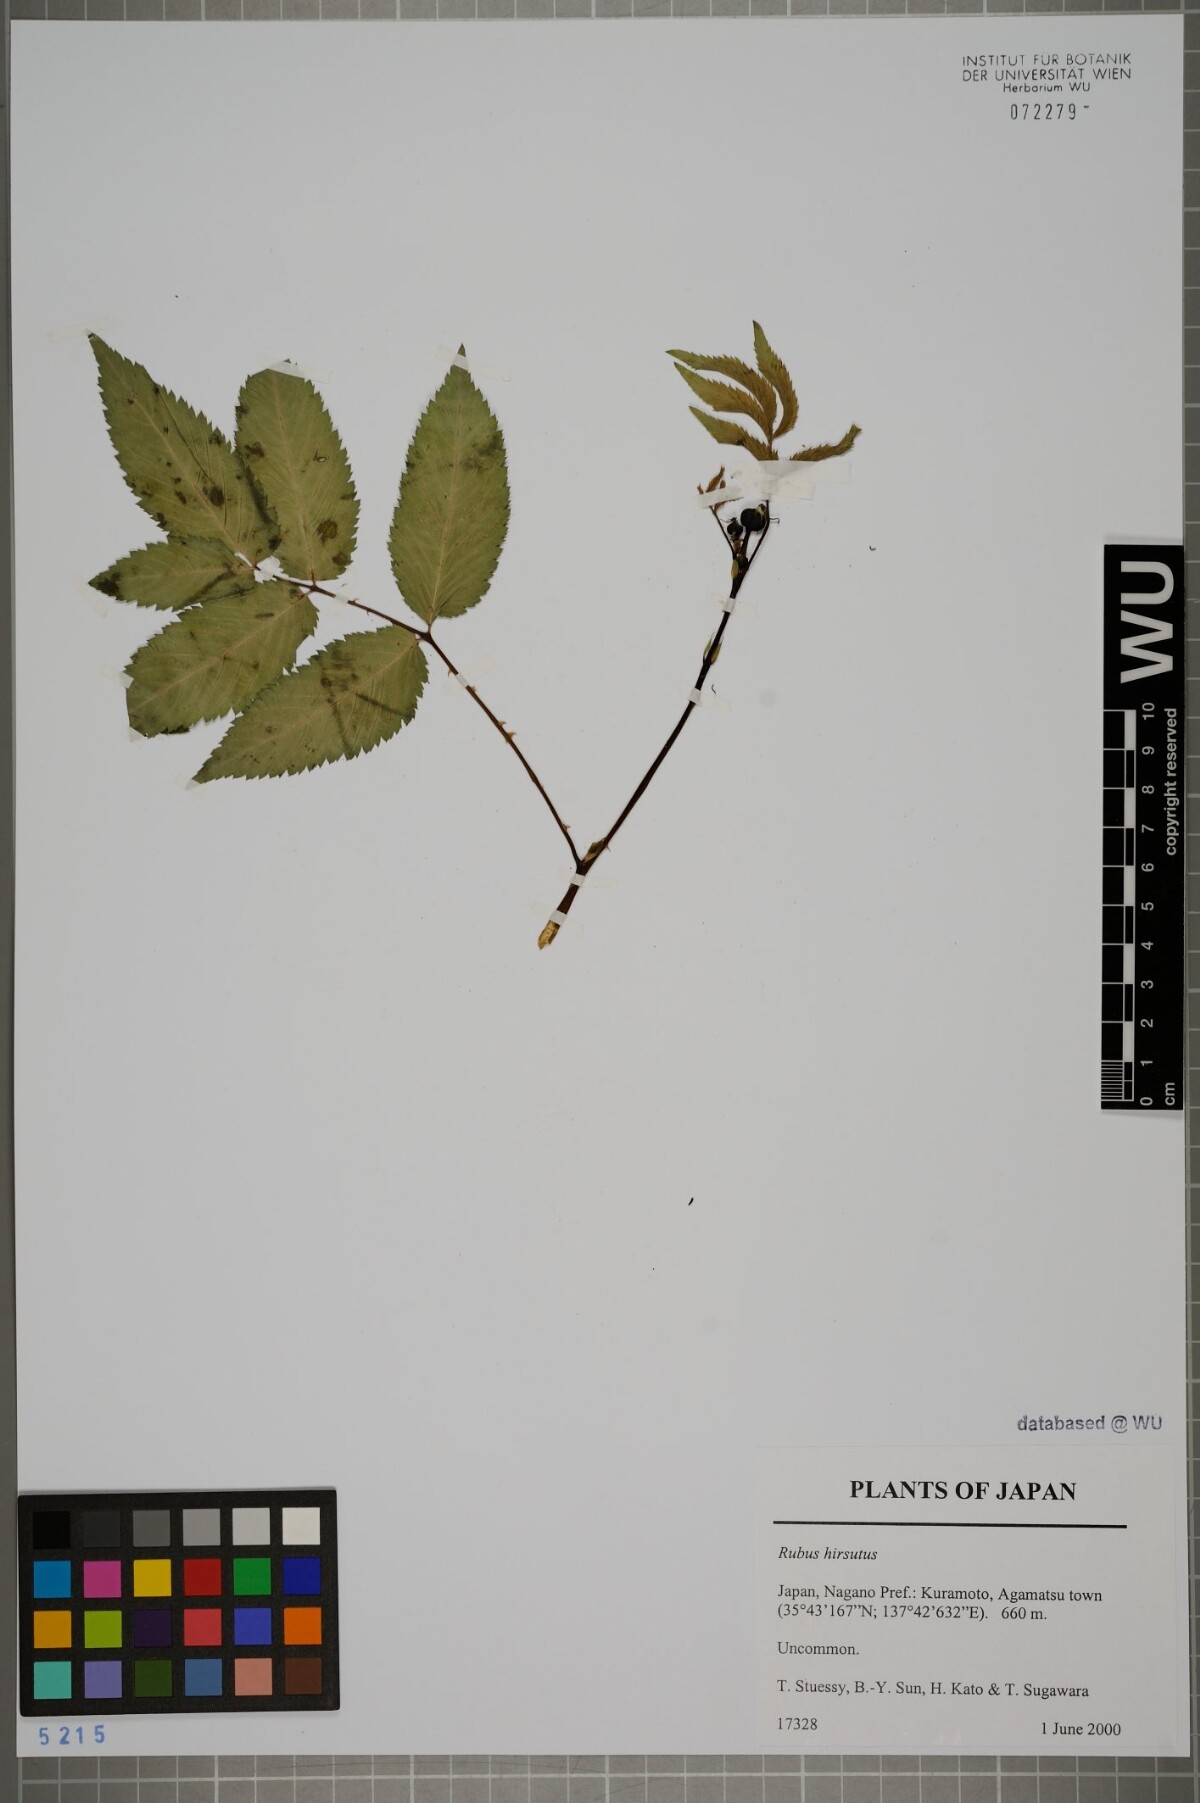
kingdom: Plantae
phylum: Tracheophyta
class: Magnoliopsida
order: Rosales
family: Rosaceae
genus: Rubus
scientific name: Rubus pannosus
